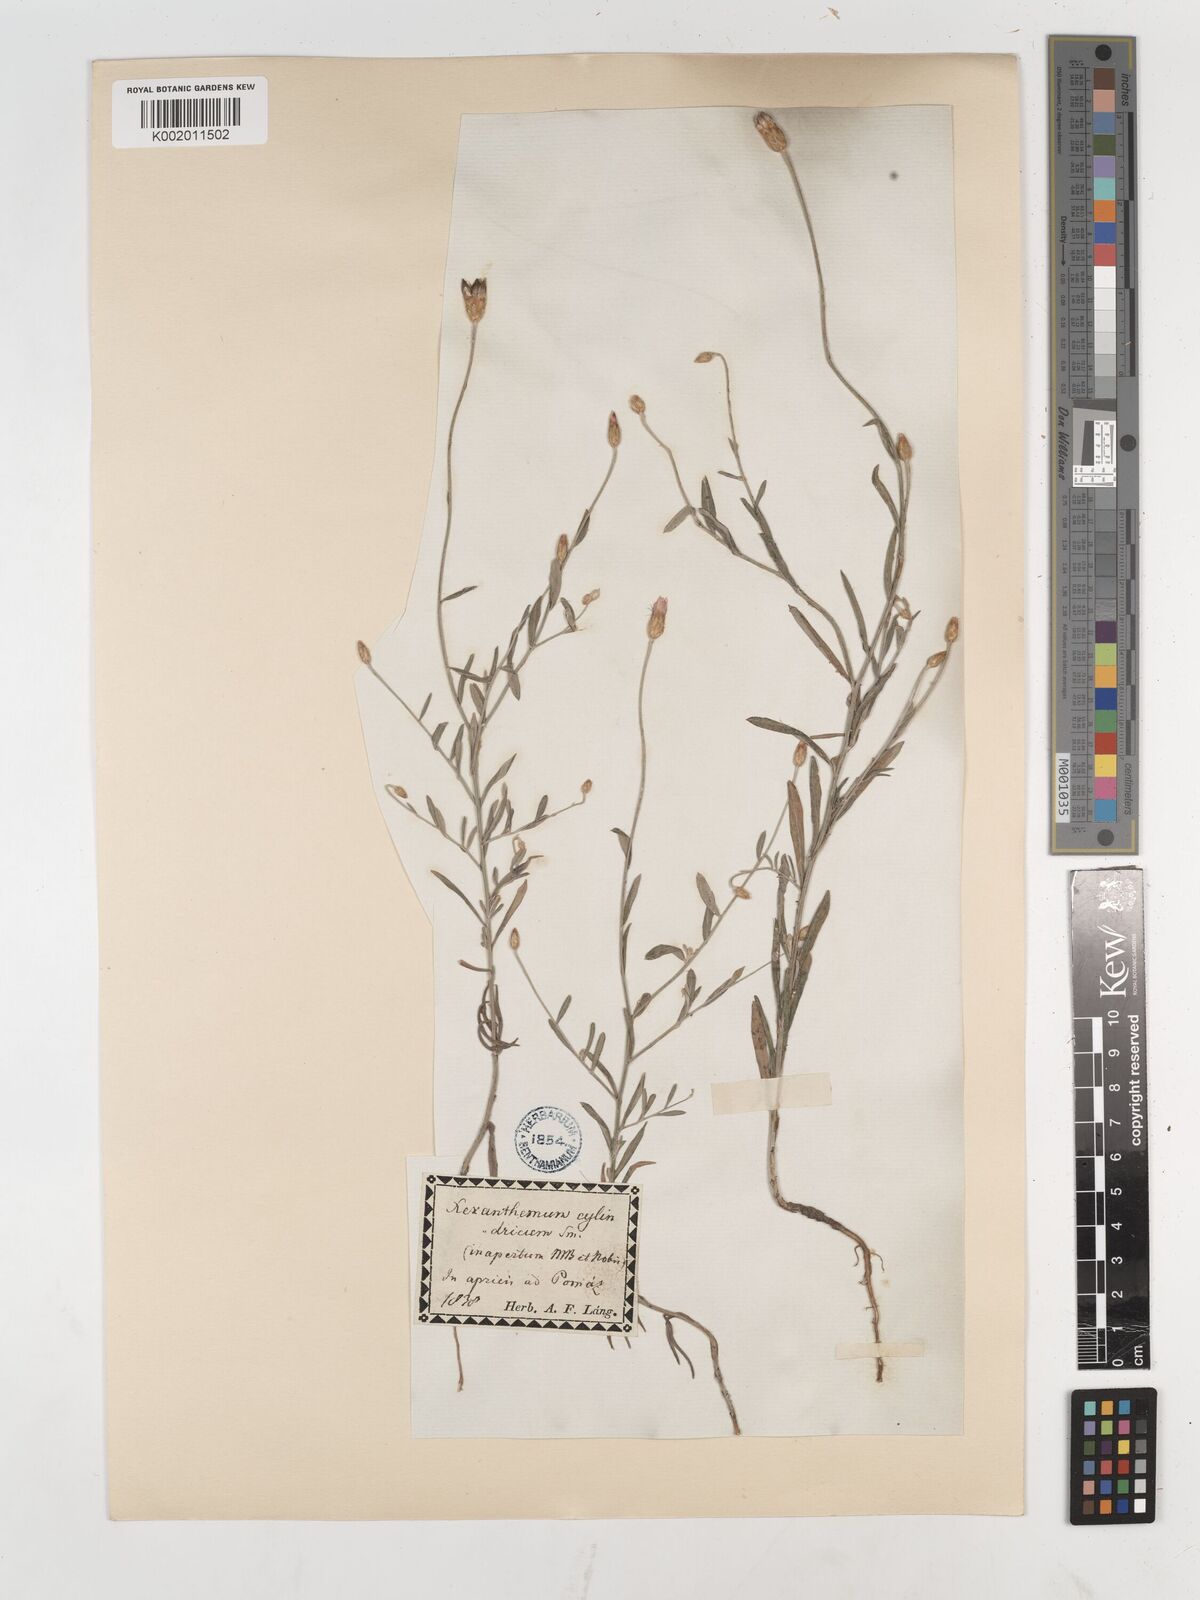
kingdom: Plantae
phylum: Tracheophyta
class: Magnoliopsida
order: Asterales
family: Asteraceae
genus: Xeranthemum
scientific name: Xeranthemum cylindraceum
